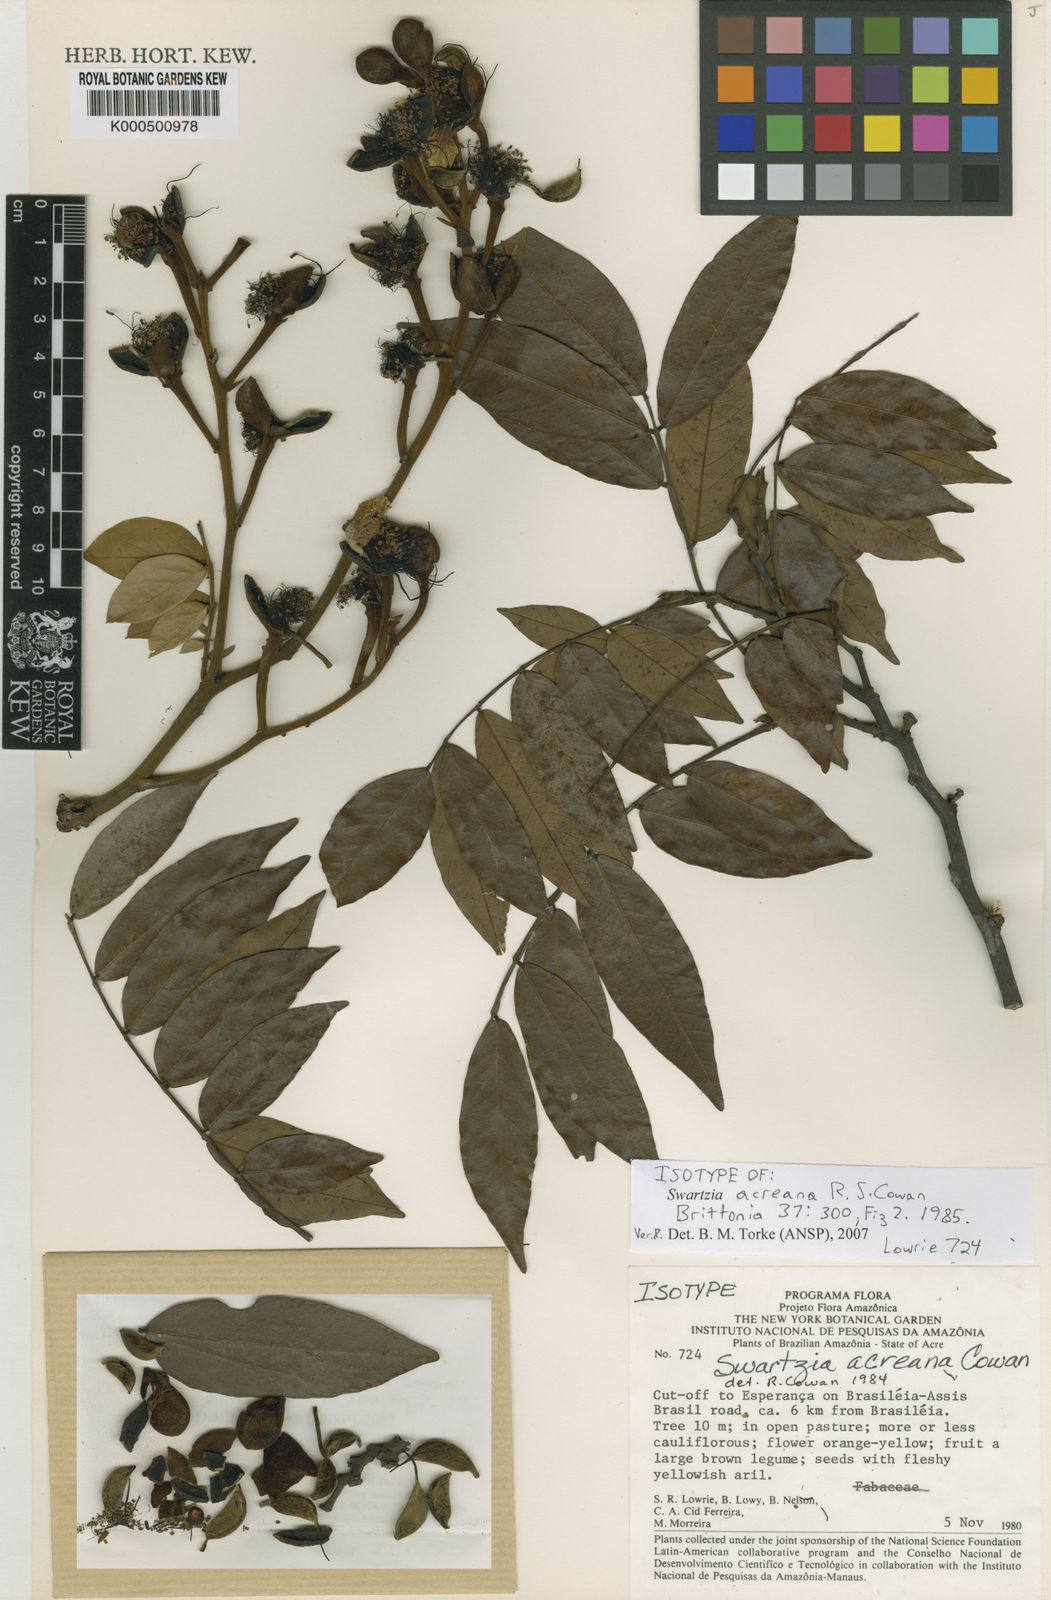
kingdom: Plantae
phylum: Tracheophyta
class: Magnoliopsida
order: Fabales
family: Fabaceae
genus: Swartzia
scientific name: Swartzia acreana
